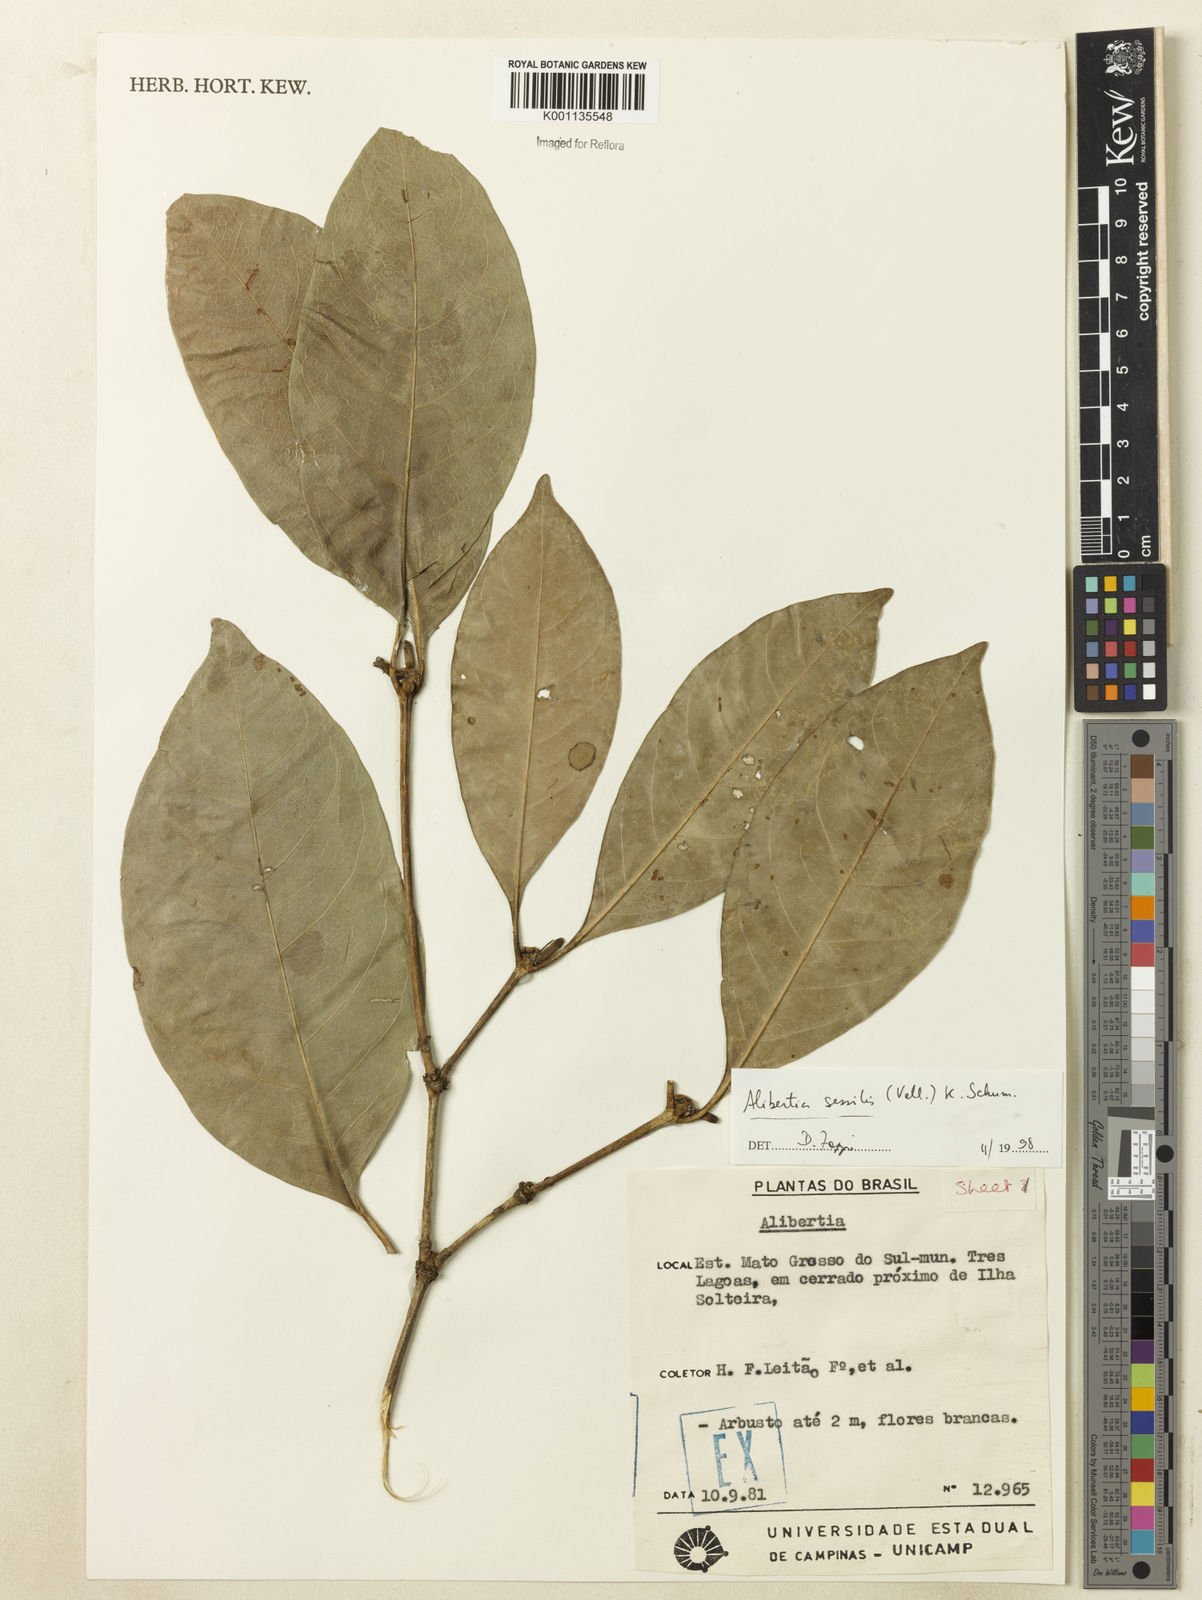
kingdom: Plantae
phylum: Tracheophyta
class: Magnoliopsida
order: Gentianales
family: Rubiaceae
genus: Cordiera
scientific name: Cordiera sessilis
